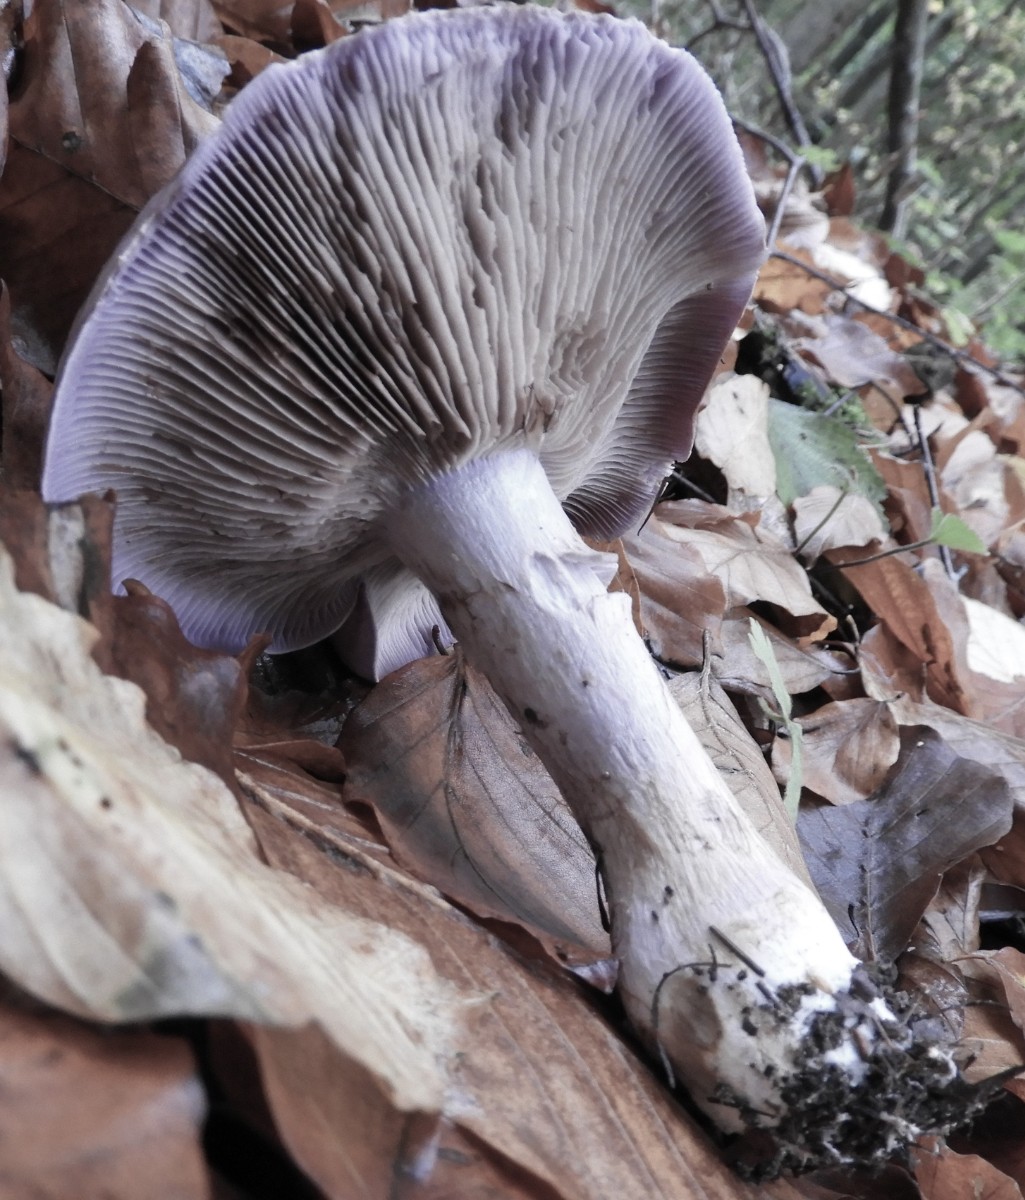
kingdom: Fungi
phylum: Basidiomycota
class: Agaricomycetes
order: Agaricales
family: Cortinariaceae
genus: Cortinarius
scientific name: Cortinarius largus
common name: violetrandet slørhat
